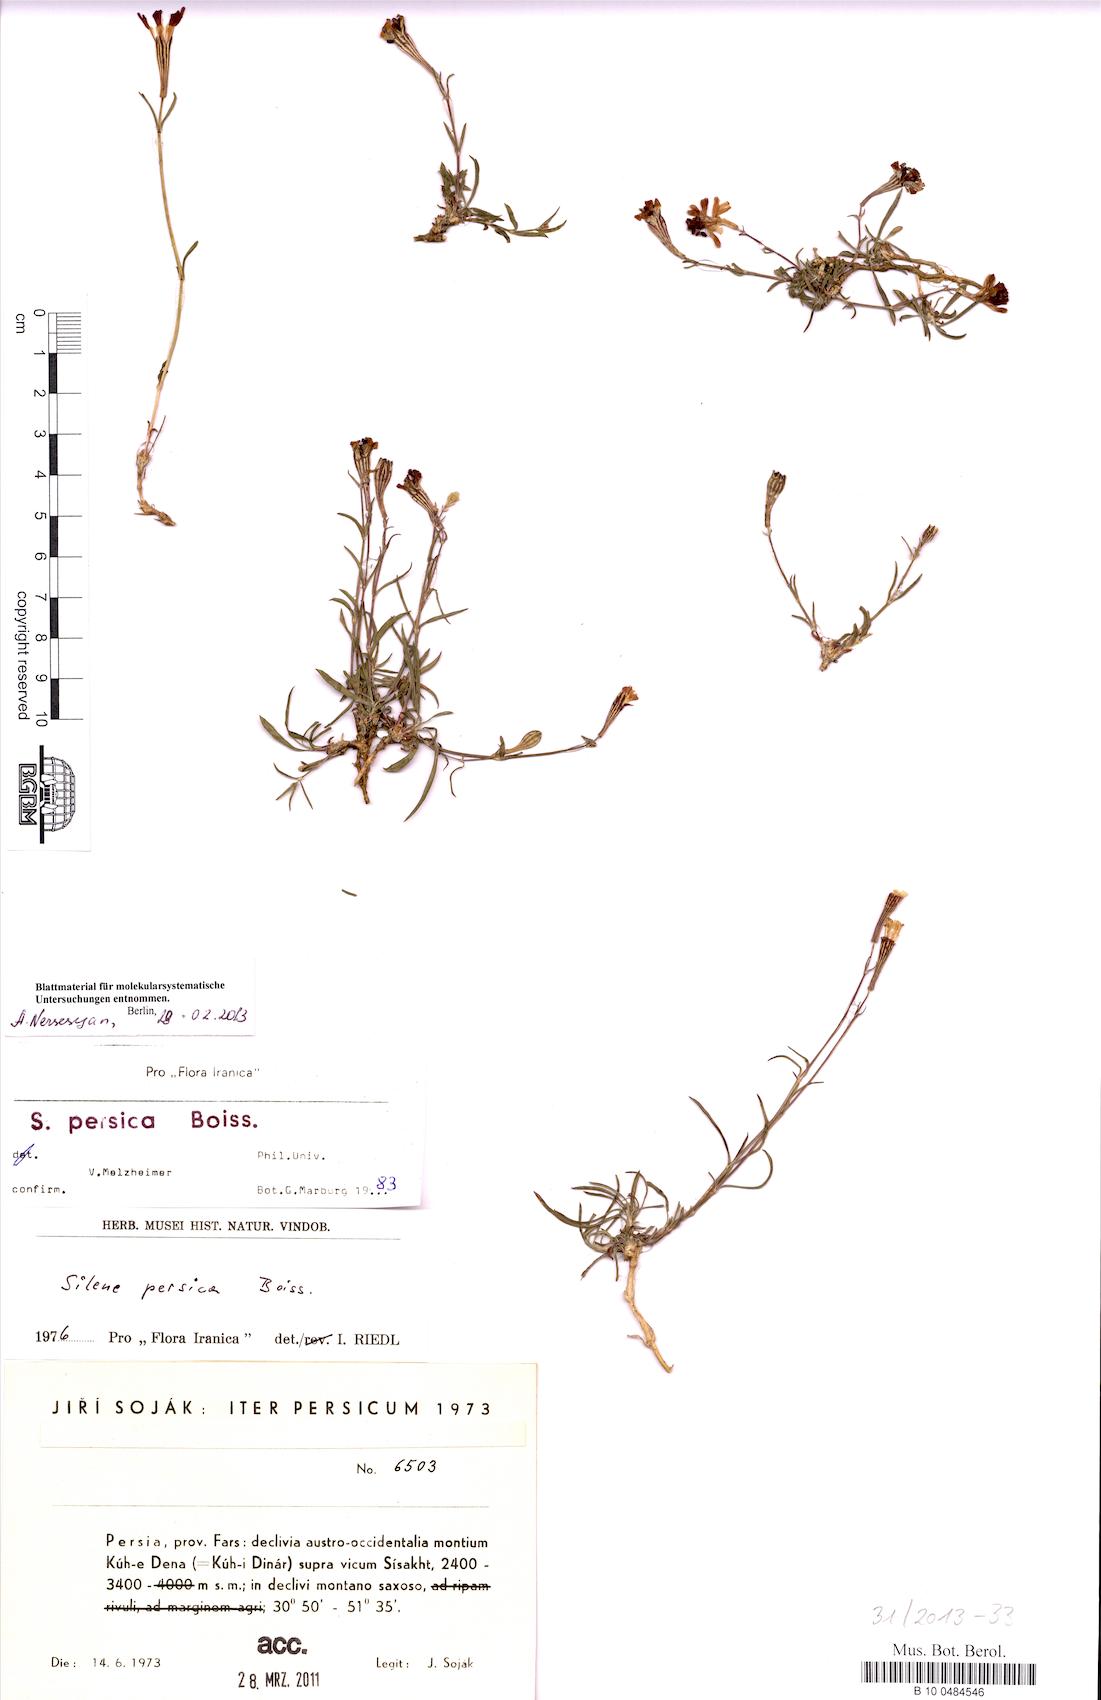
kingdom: Plantae
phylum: Tracheophyta
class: Magnoliopsida
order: Caryophyllales
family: Caryophyllaceae
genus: Silene
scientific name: Silene persica
